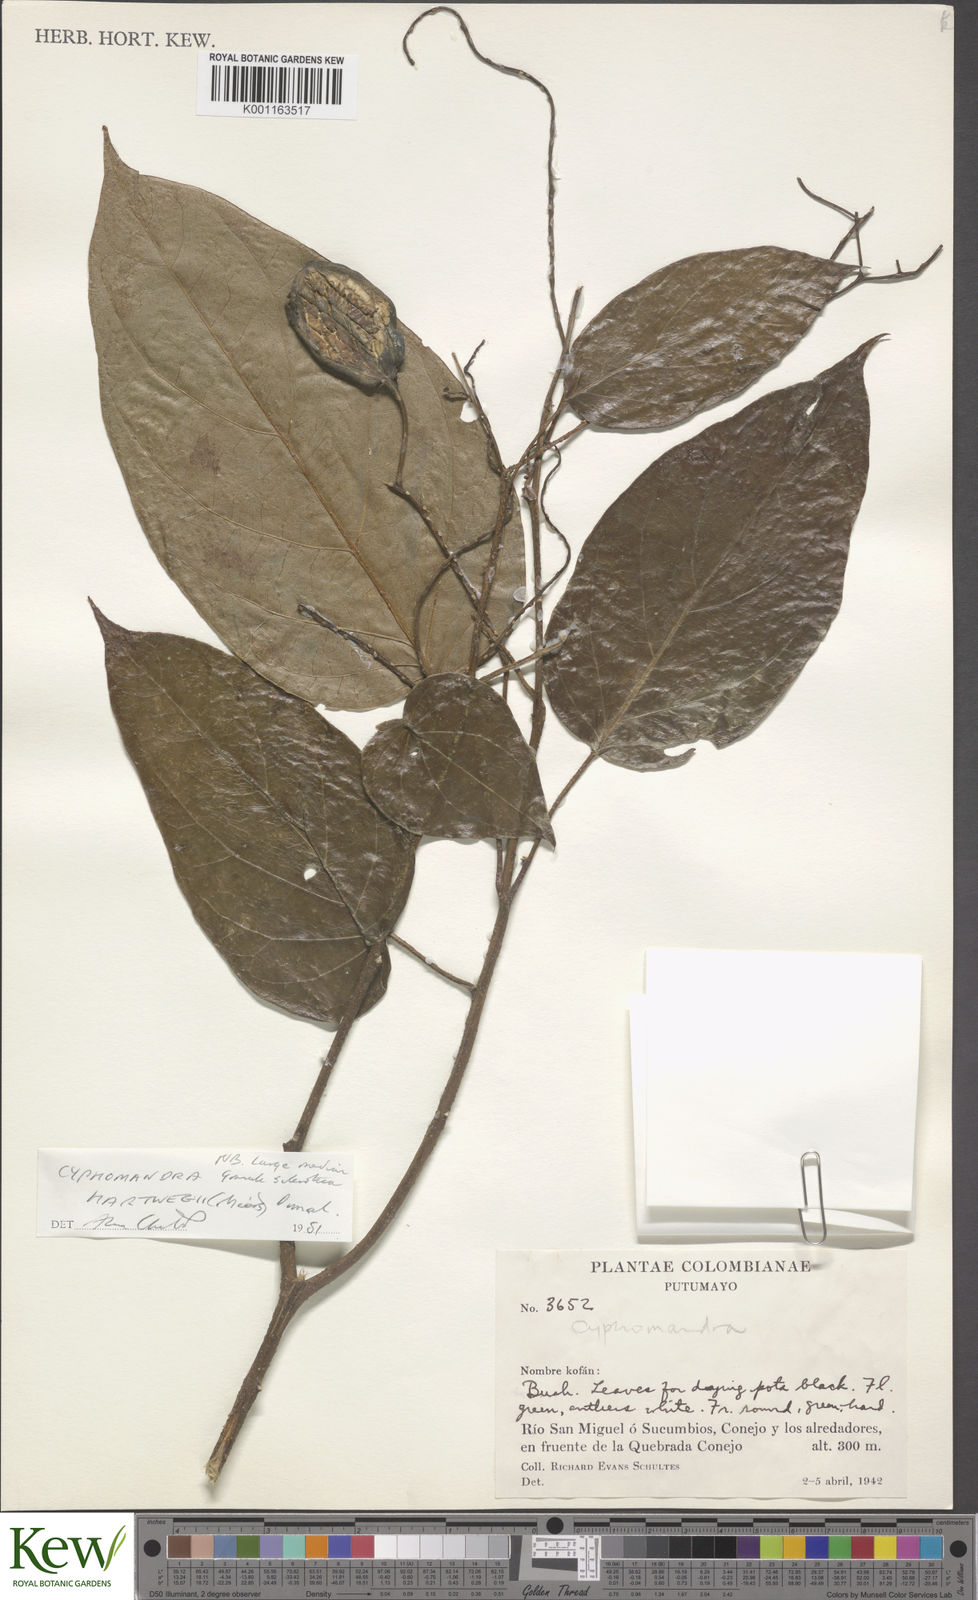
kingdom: Plantae
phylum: Tracheophyta
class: Magnoliopsida
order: Solanales
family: Solanaceae
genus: Solanum
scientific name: Solanum splendens
